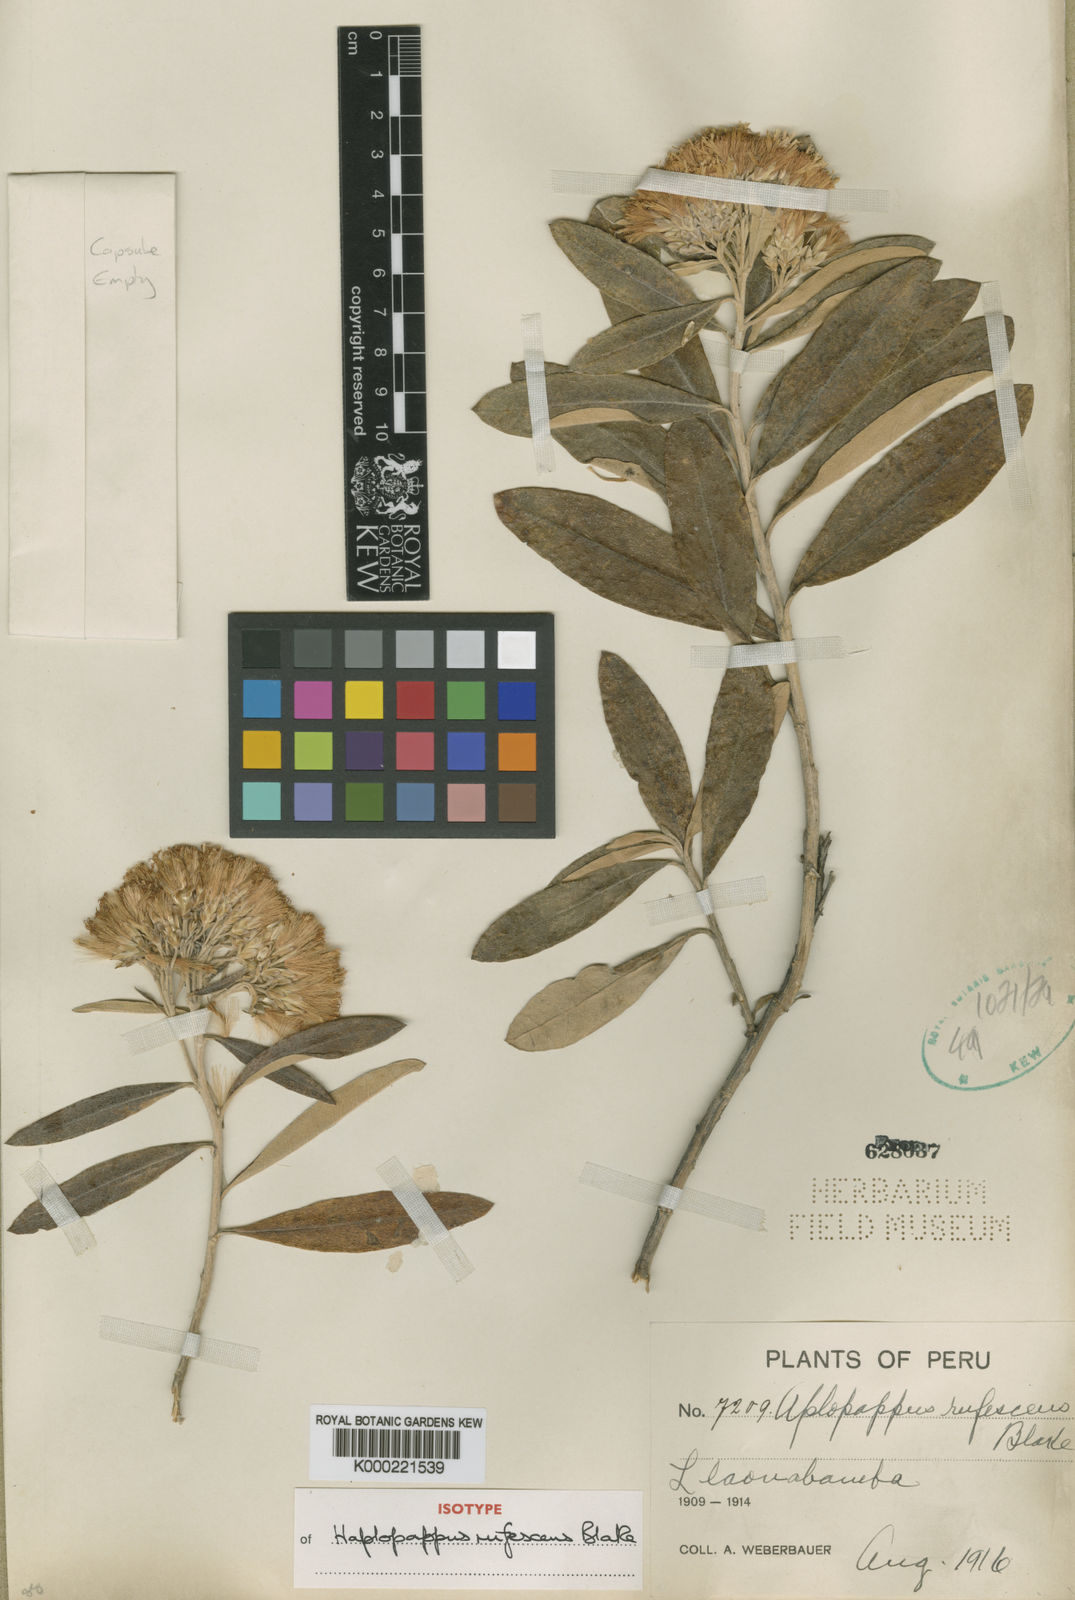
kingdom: Plantae
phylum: Tracheophyta
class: Magnoliopsida
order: Asterales
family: Asteraceae
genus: Llerasia
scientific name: Llerasia rufescens
